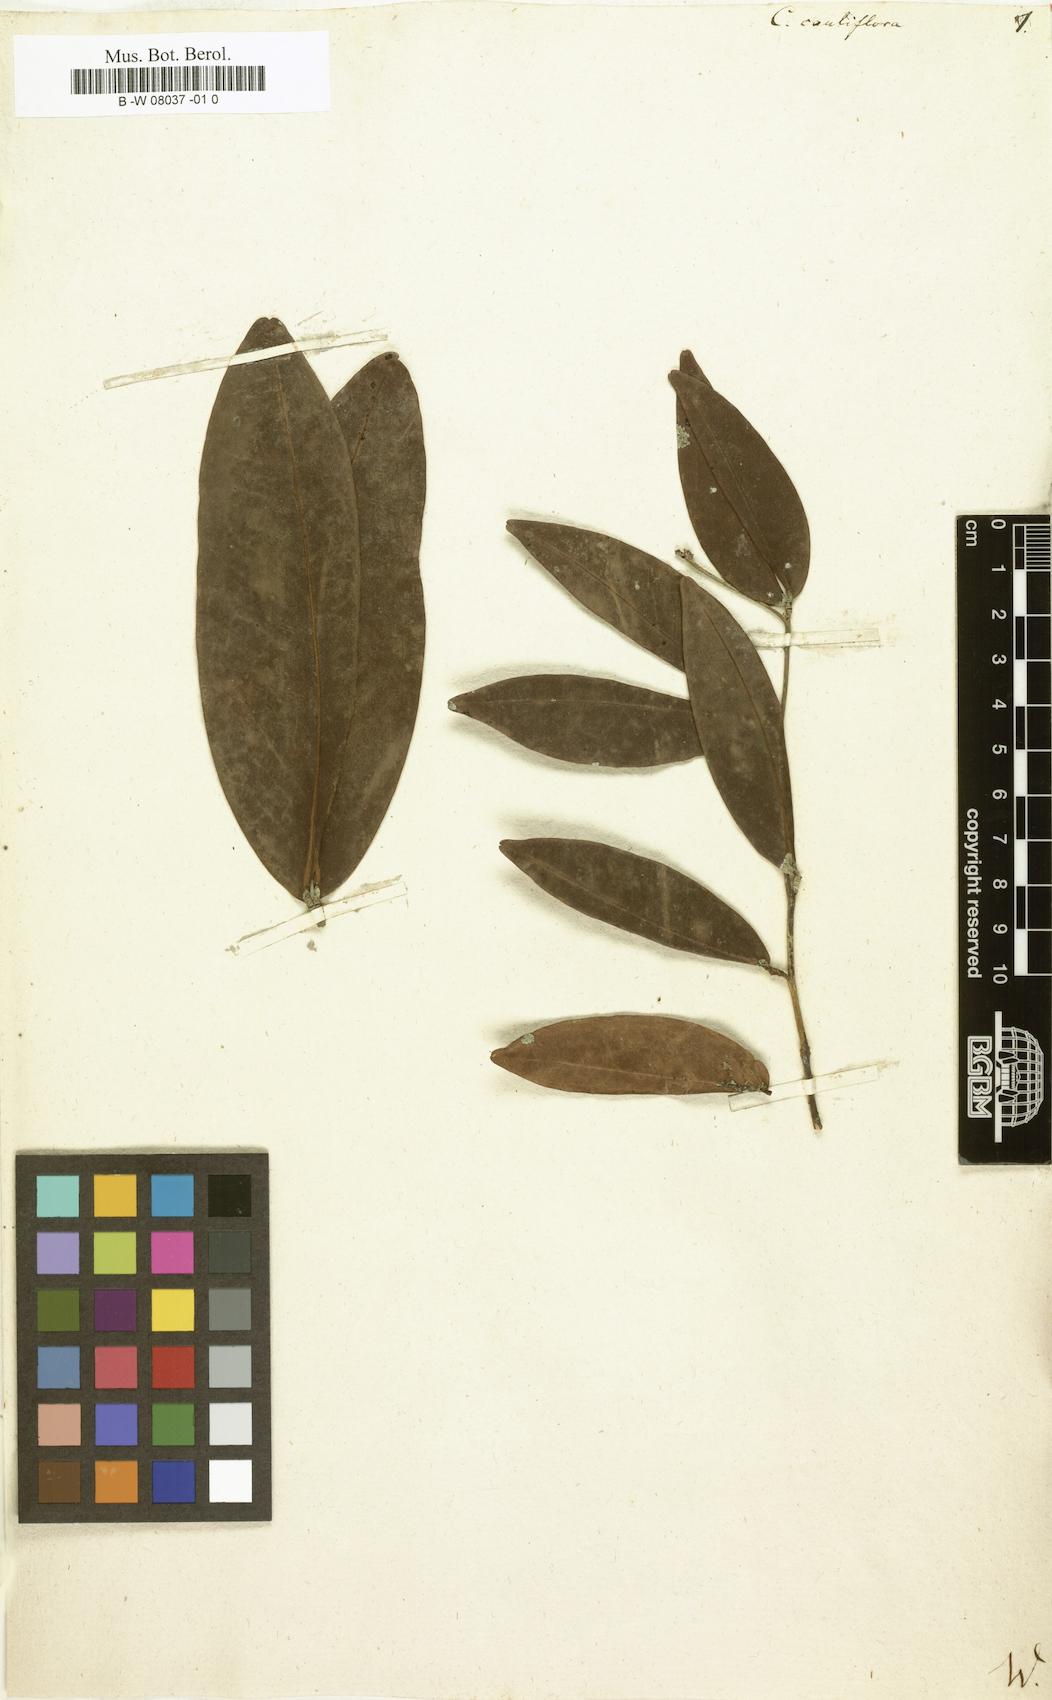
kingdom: Plantae
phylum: Tracheophyta
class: Magnoliopsida
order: Fabales
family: Fabaceae
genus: Cynometra
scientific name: Cynometra cauliflora
